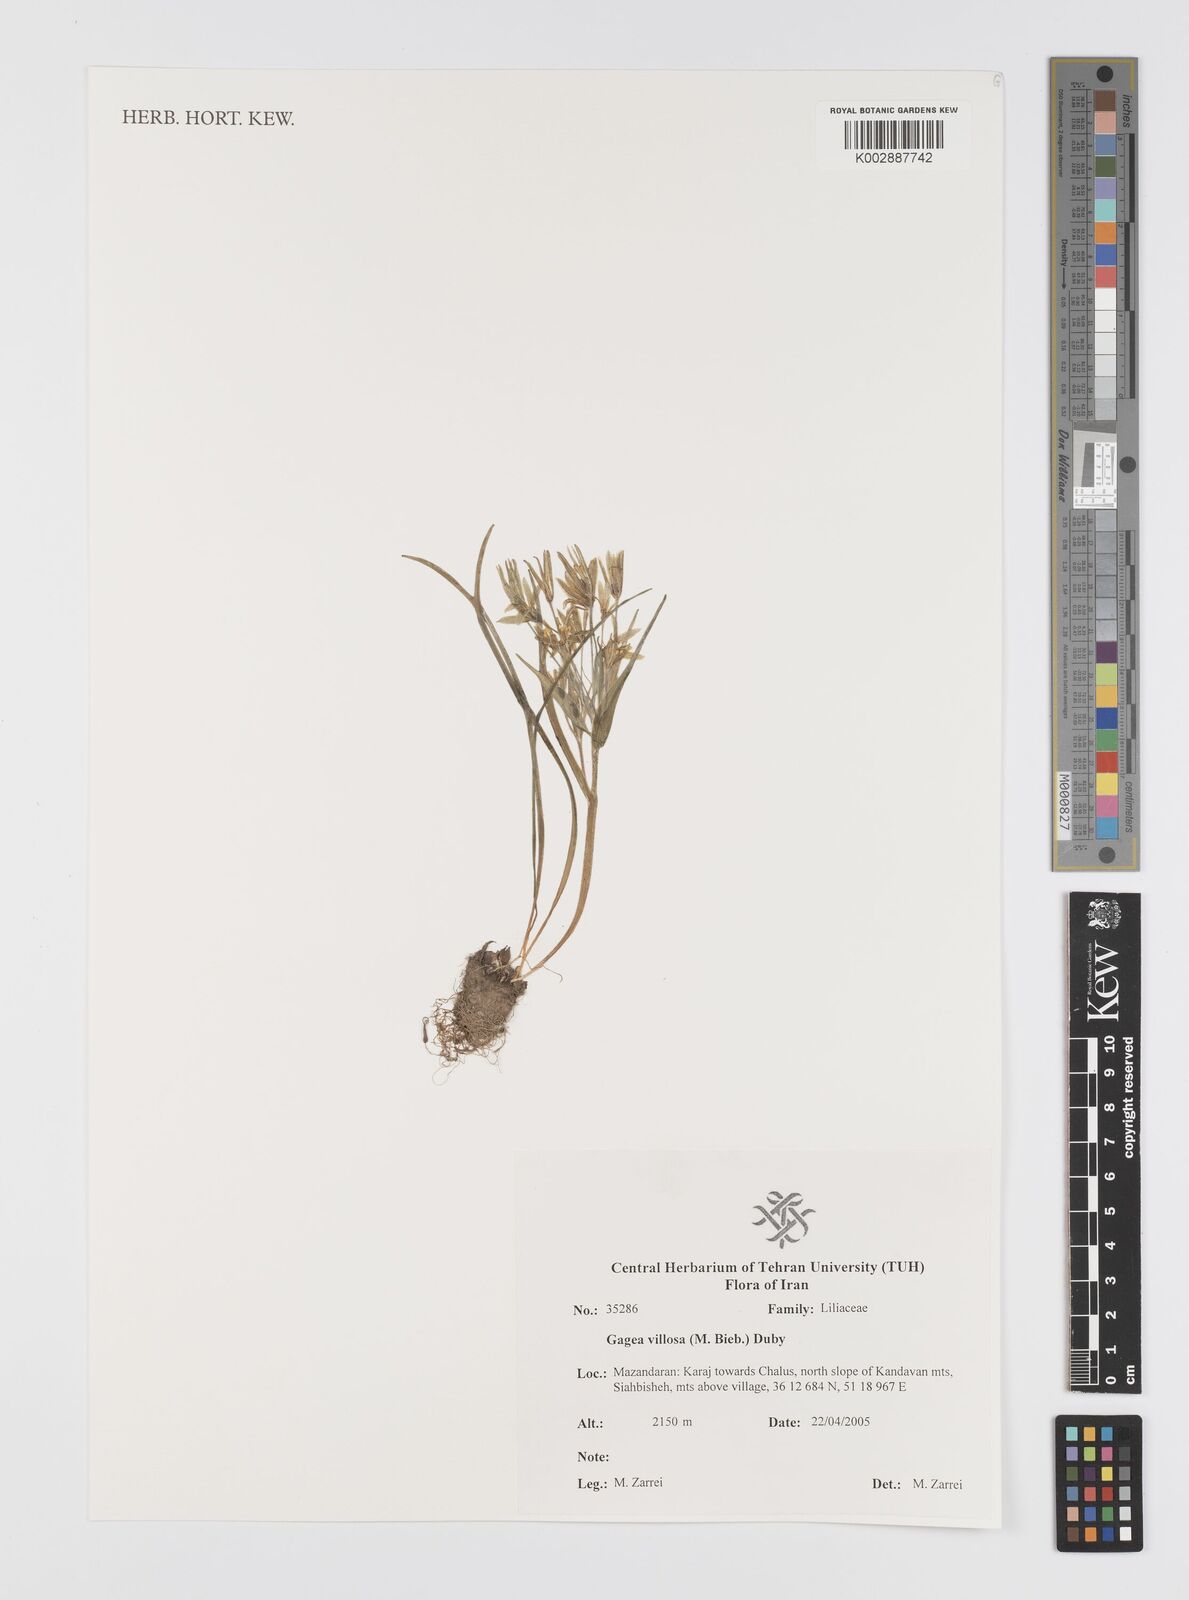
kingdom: Plantae
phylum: Tracheophyta
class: Liliopsida
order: Liliales
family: Liliaceae
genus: Gagea
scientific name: Gagea villosa
